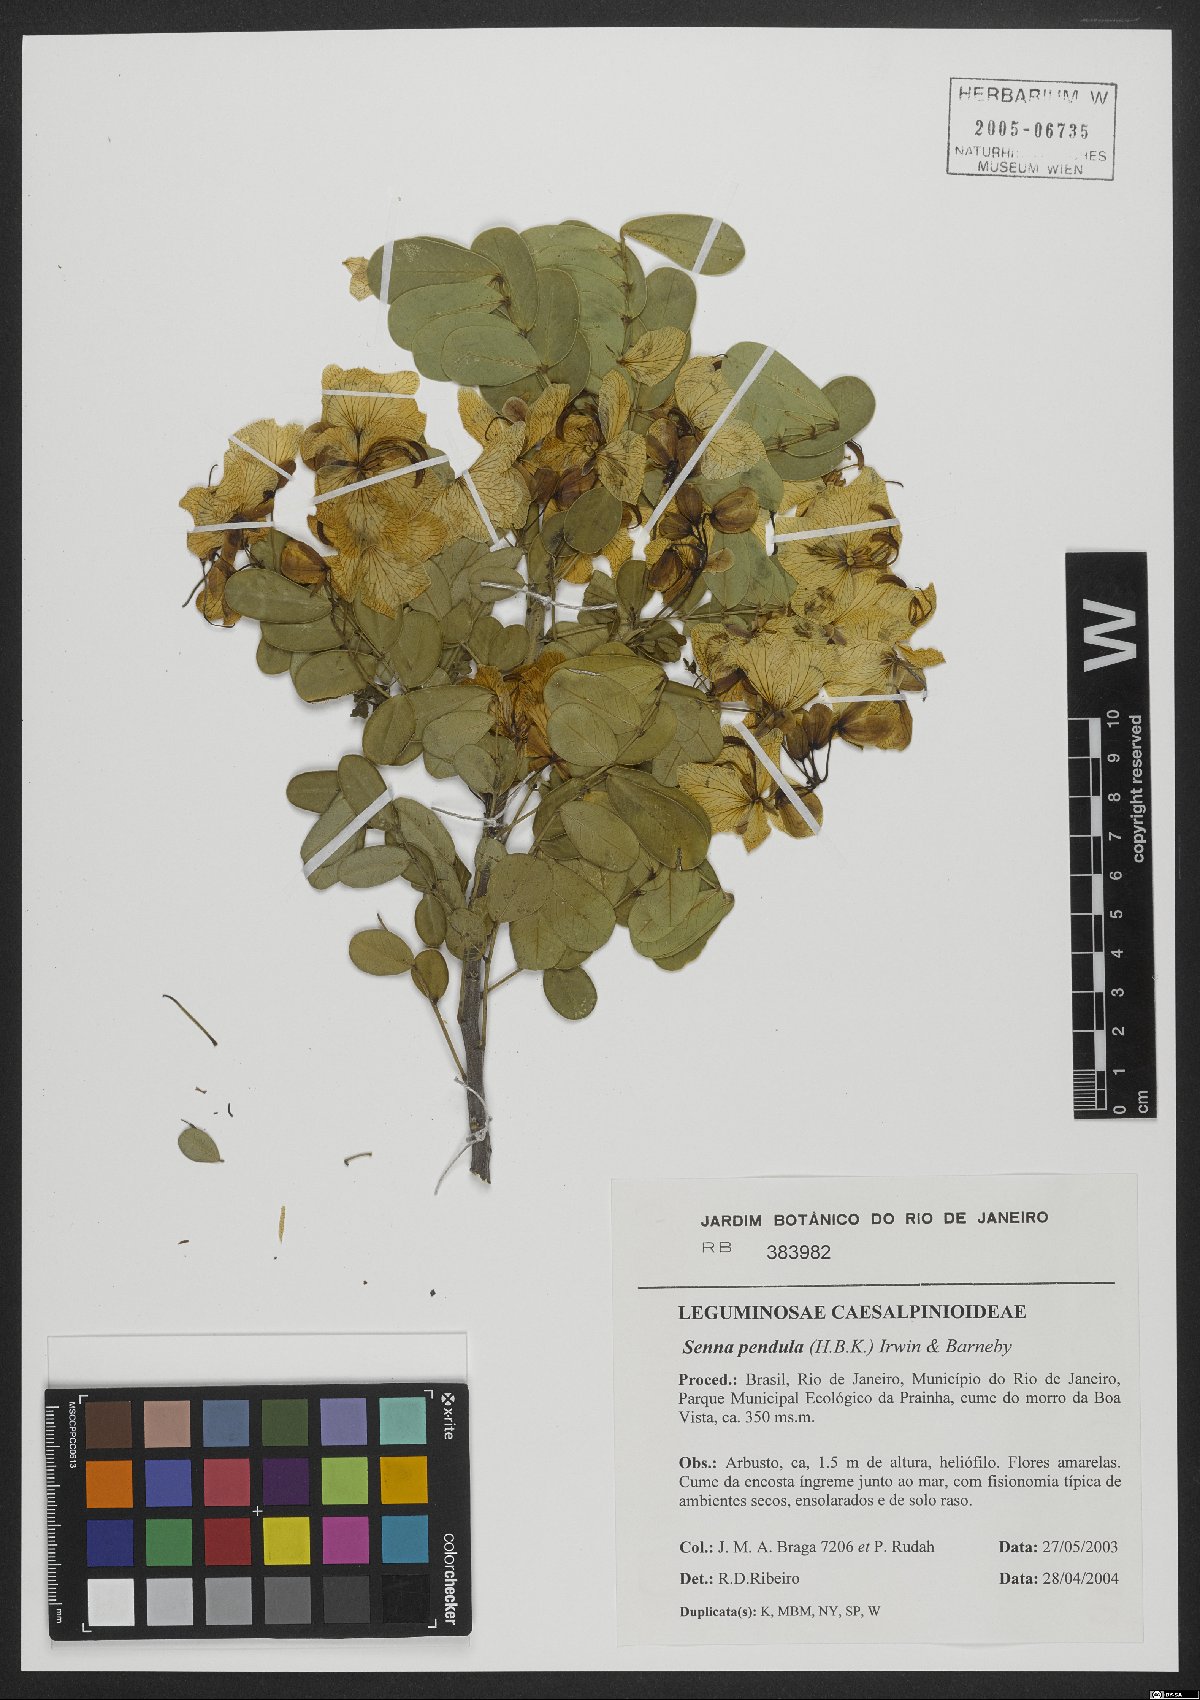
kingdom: Plantae
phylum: Tracheophyta
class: Magnoliopsida
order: Fabales
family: Fabaceae
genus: Senna
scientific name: Senna pendula
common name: Easter cassia
